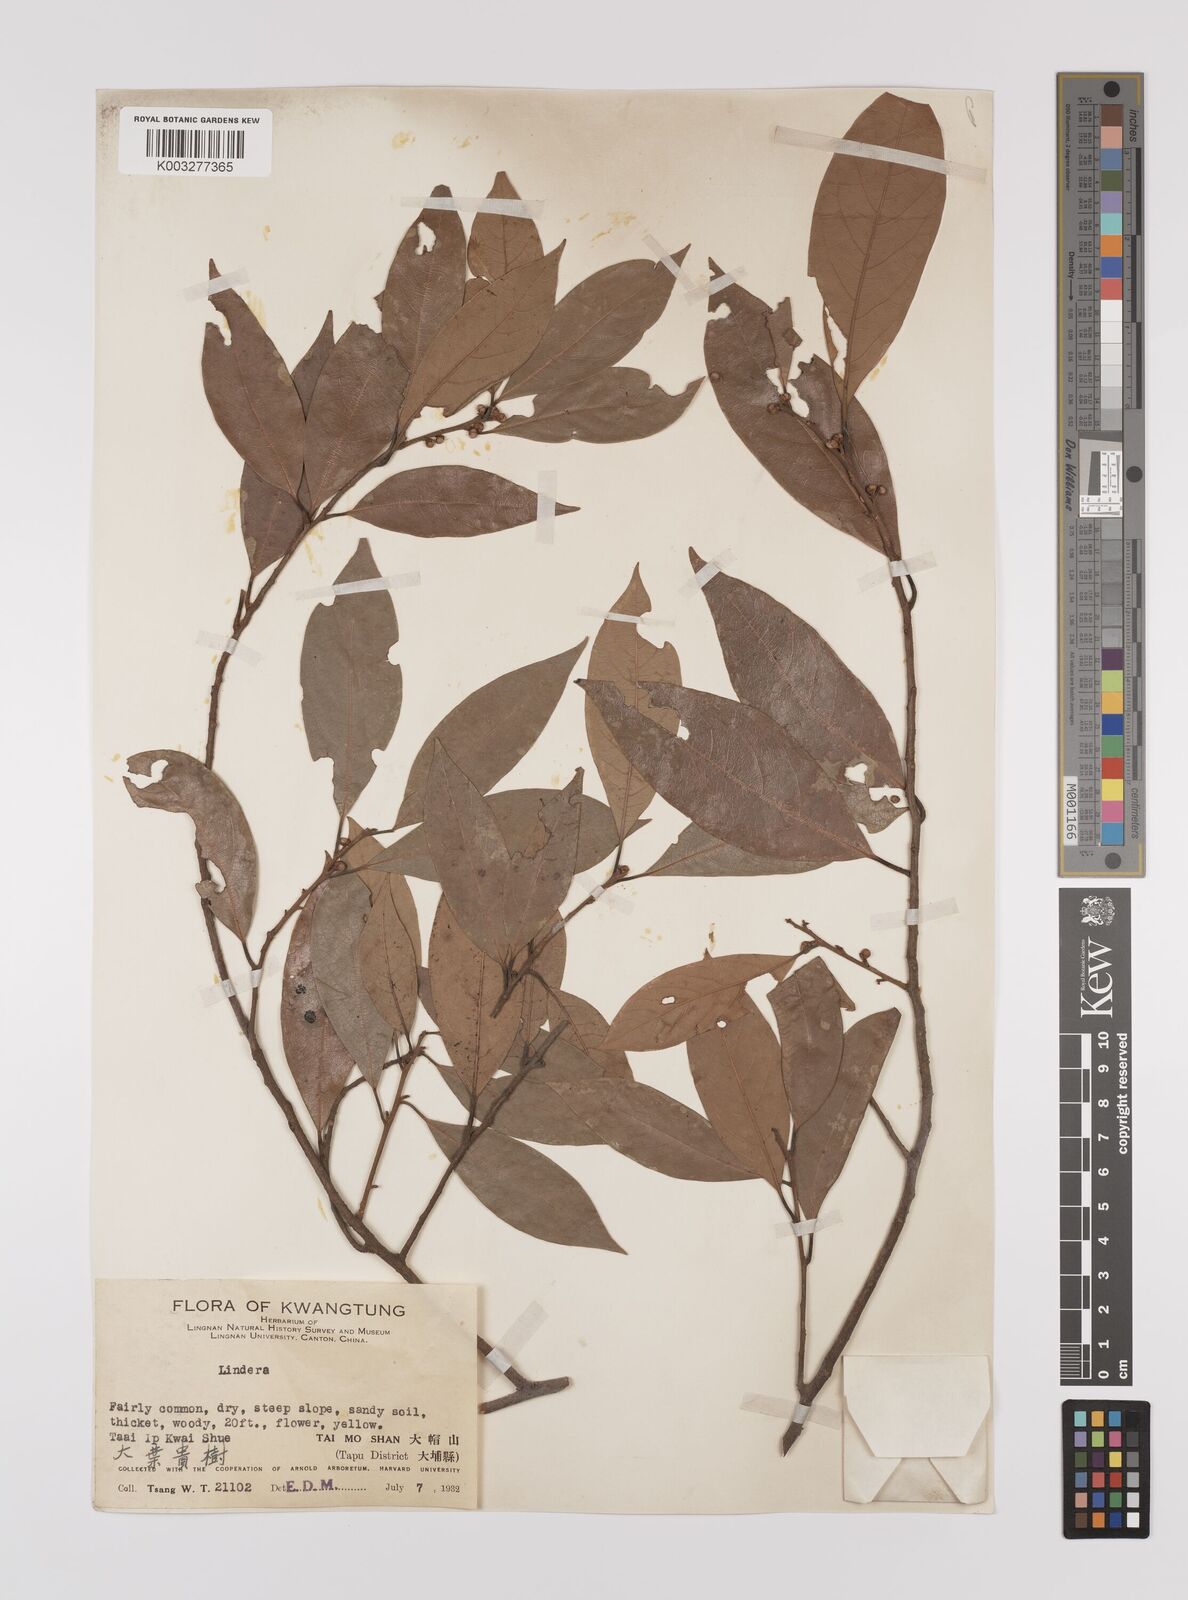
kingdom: Plantae
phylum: Tracheophyta
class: Magnoliopsida
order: Laurales
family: Lauraceae
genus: Litsea
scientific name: Litsea elongata
